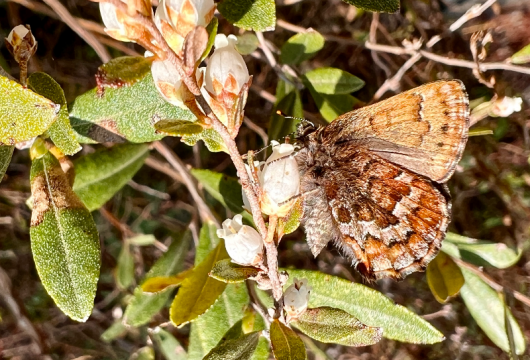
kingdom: Animalia
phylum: Arthropoda
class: Insecta
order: Lepidoptera
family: Lycaenidae
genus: Incisalia
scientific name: Incisalia niphon
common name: Eastern Pine Elfin
